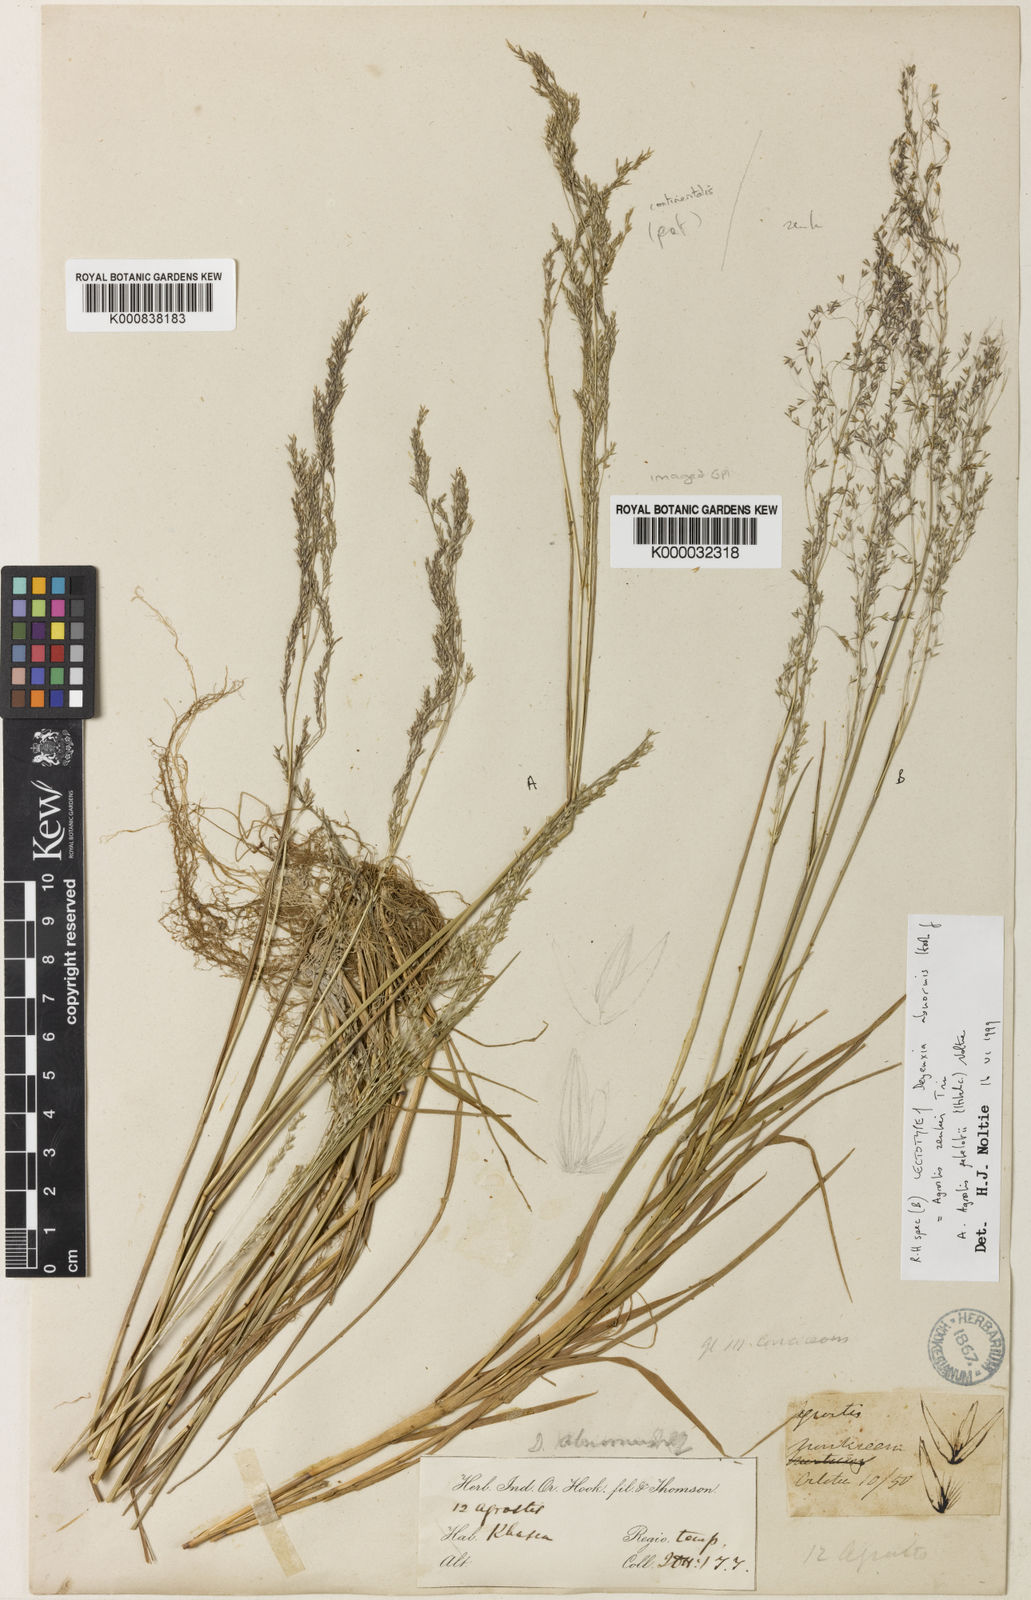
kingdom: Plantae
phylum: Tracheophyta
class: Liliopsida
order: Poales
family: Poaceae
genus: Calamagrostis
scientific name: Calamagrostis abnormis
